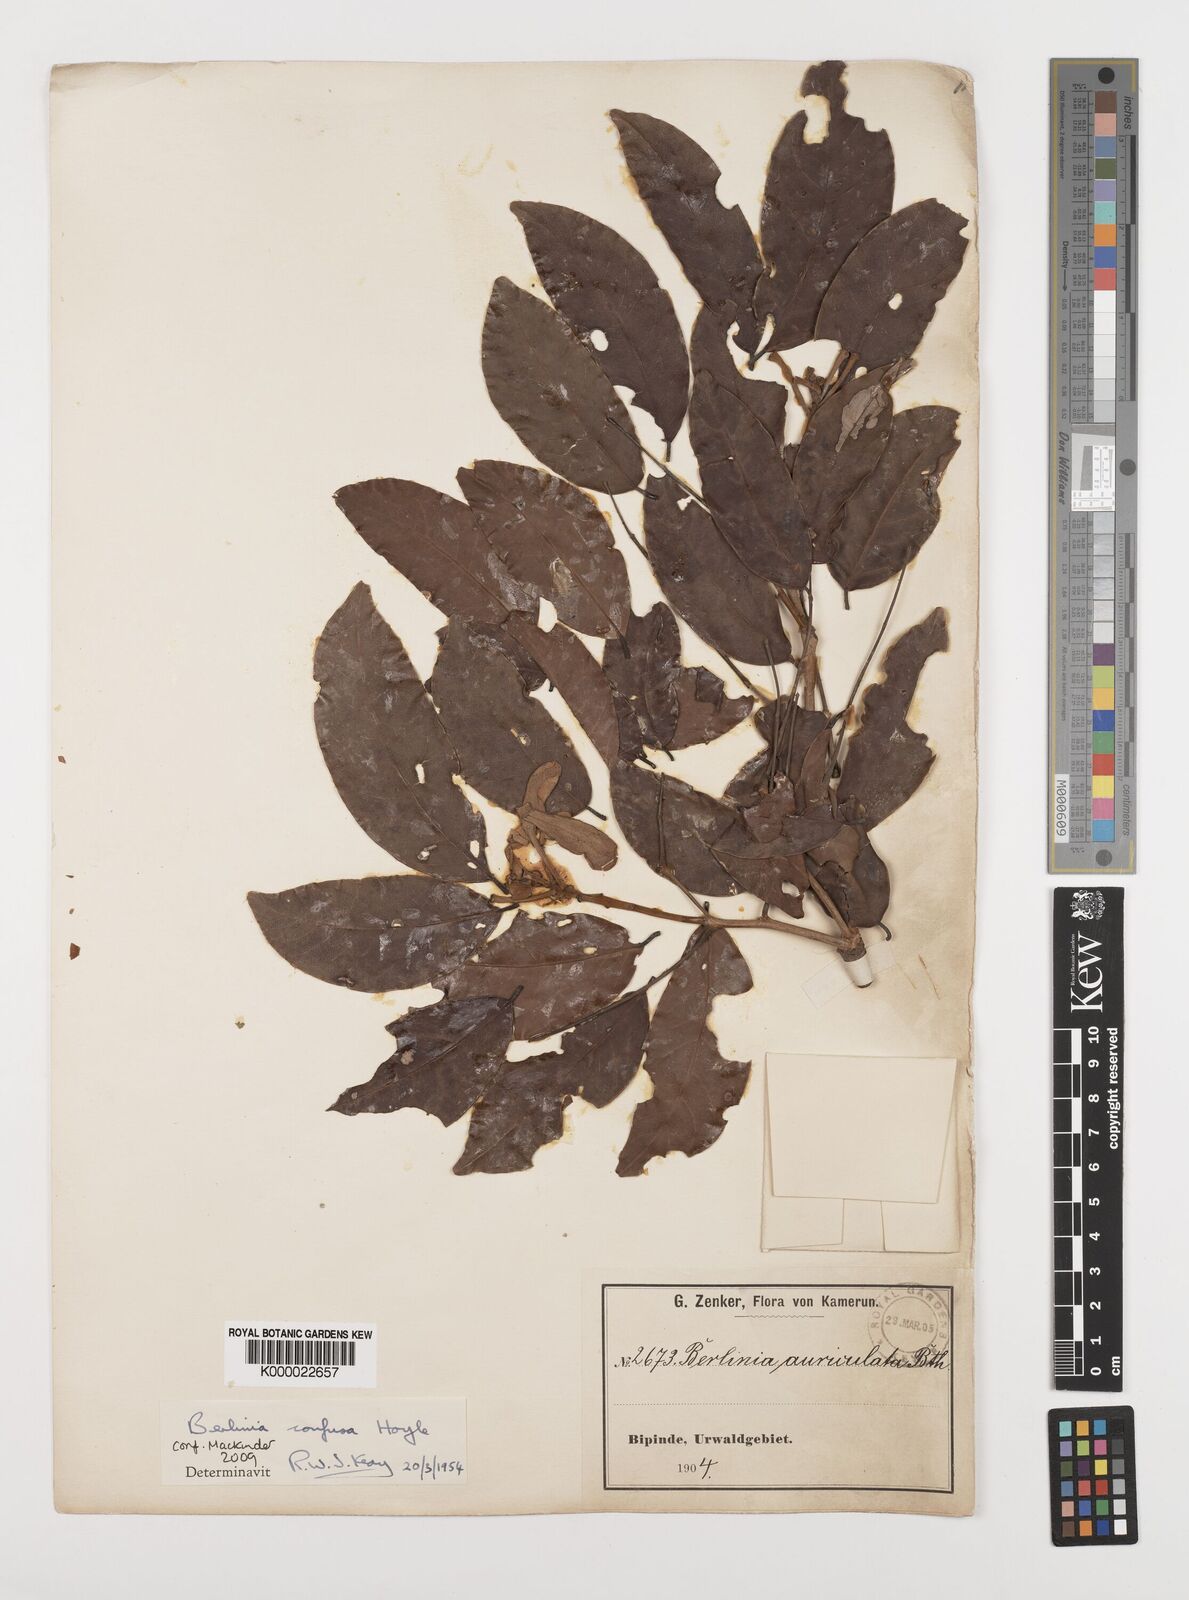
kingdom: Plantae
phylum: Tracheophyta
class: Magnoliopsida
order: Fabales
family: Fabaceae
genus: Berlinia
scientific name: Berlinia confusa
